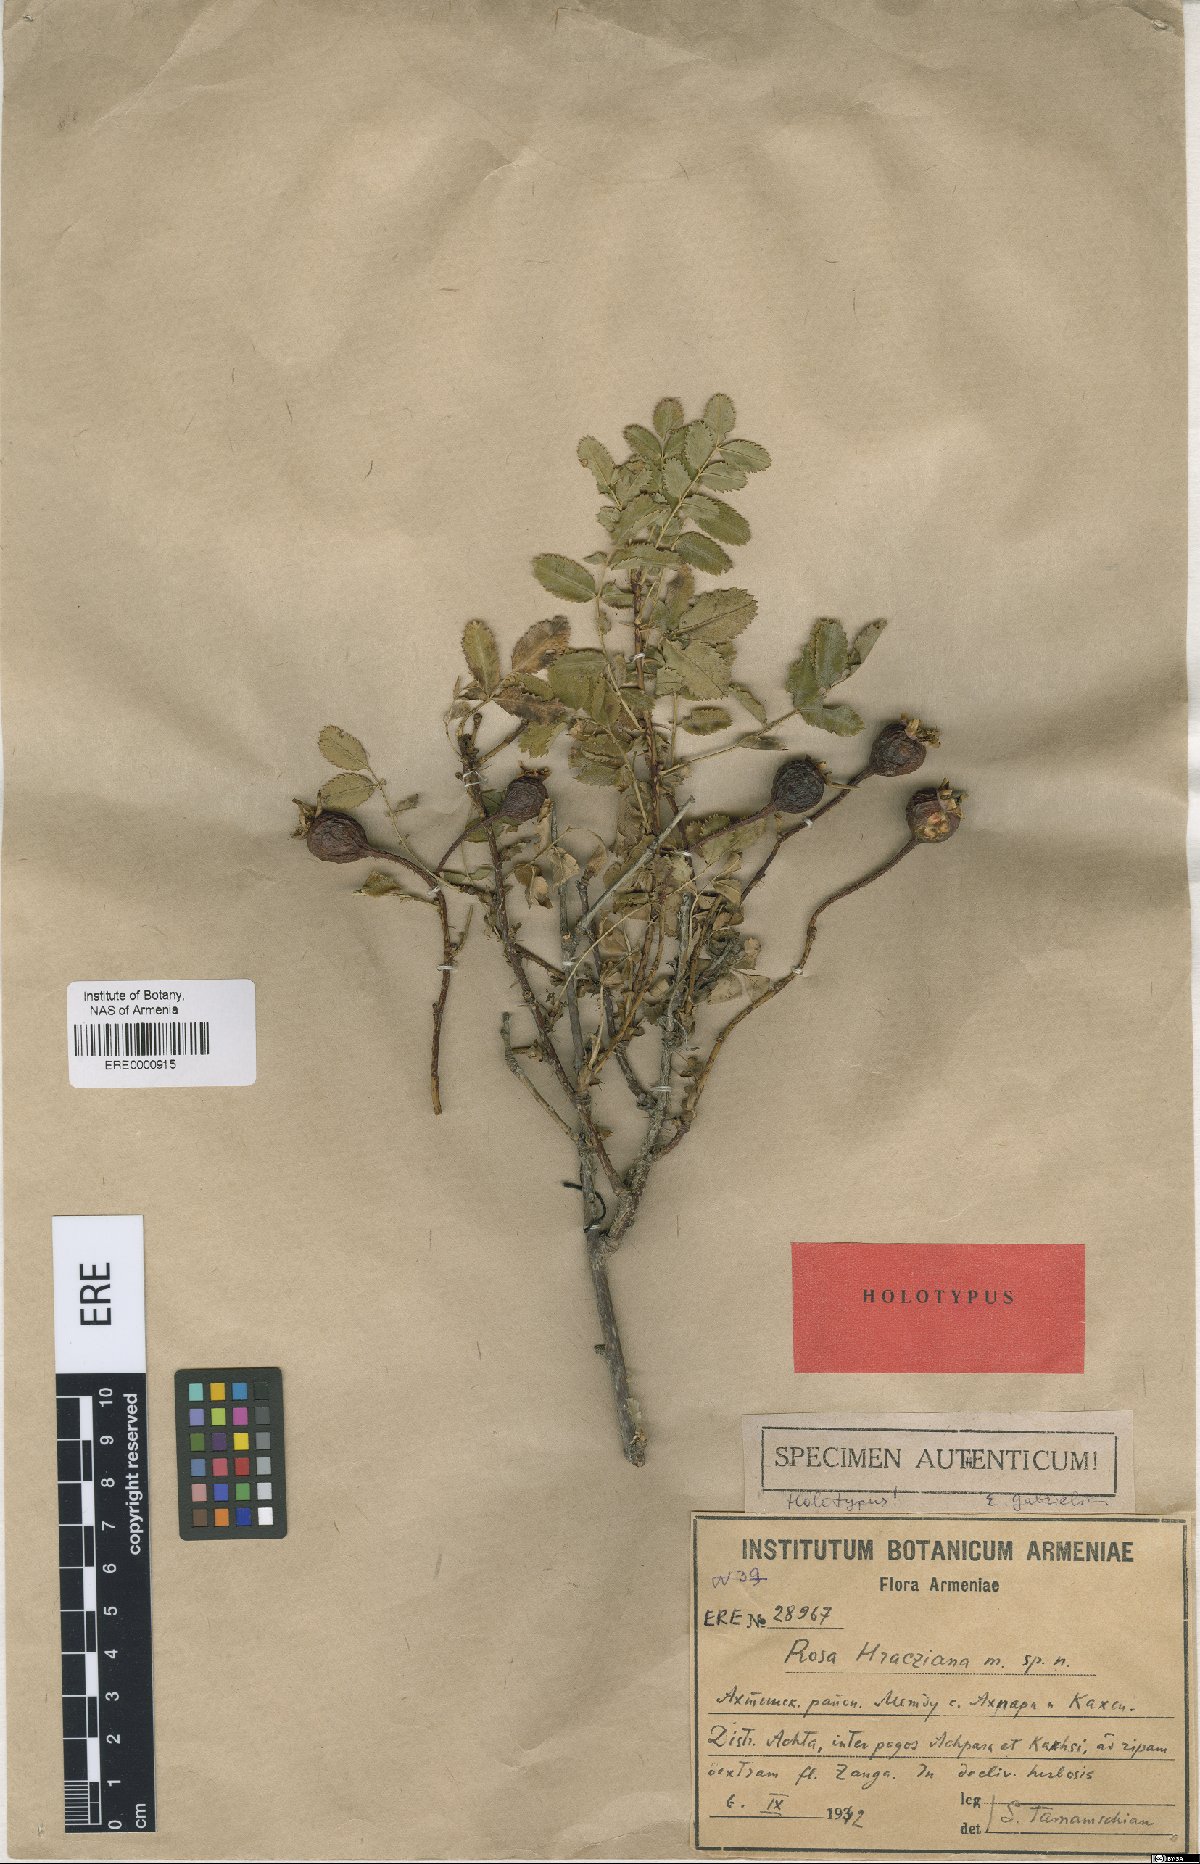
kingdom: Plantae
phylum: Tracheophyta
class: Magnoliopsida
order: Rosales
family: Rosaceae
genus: Rosa
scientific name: Rosa spinosissima
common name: Burnet rose
